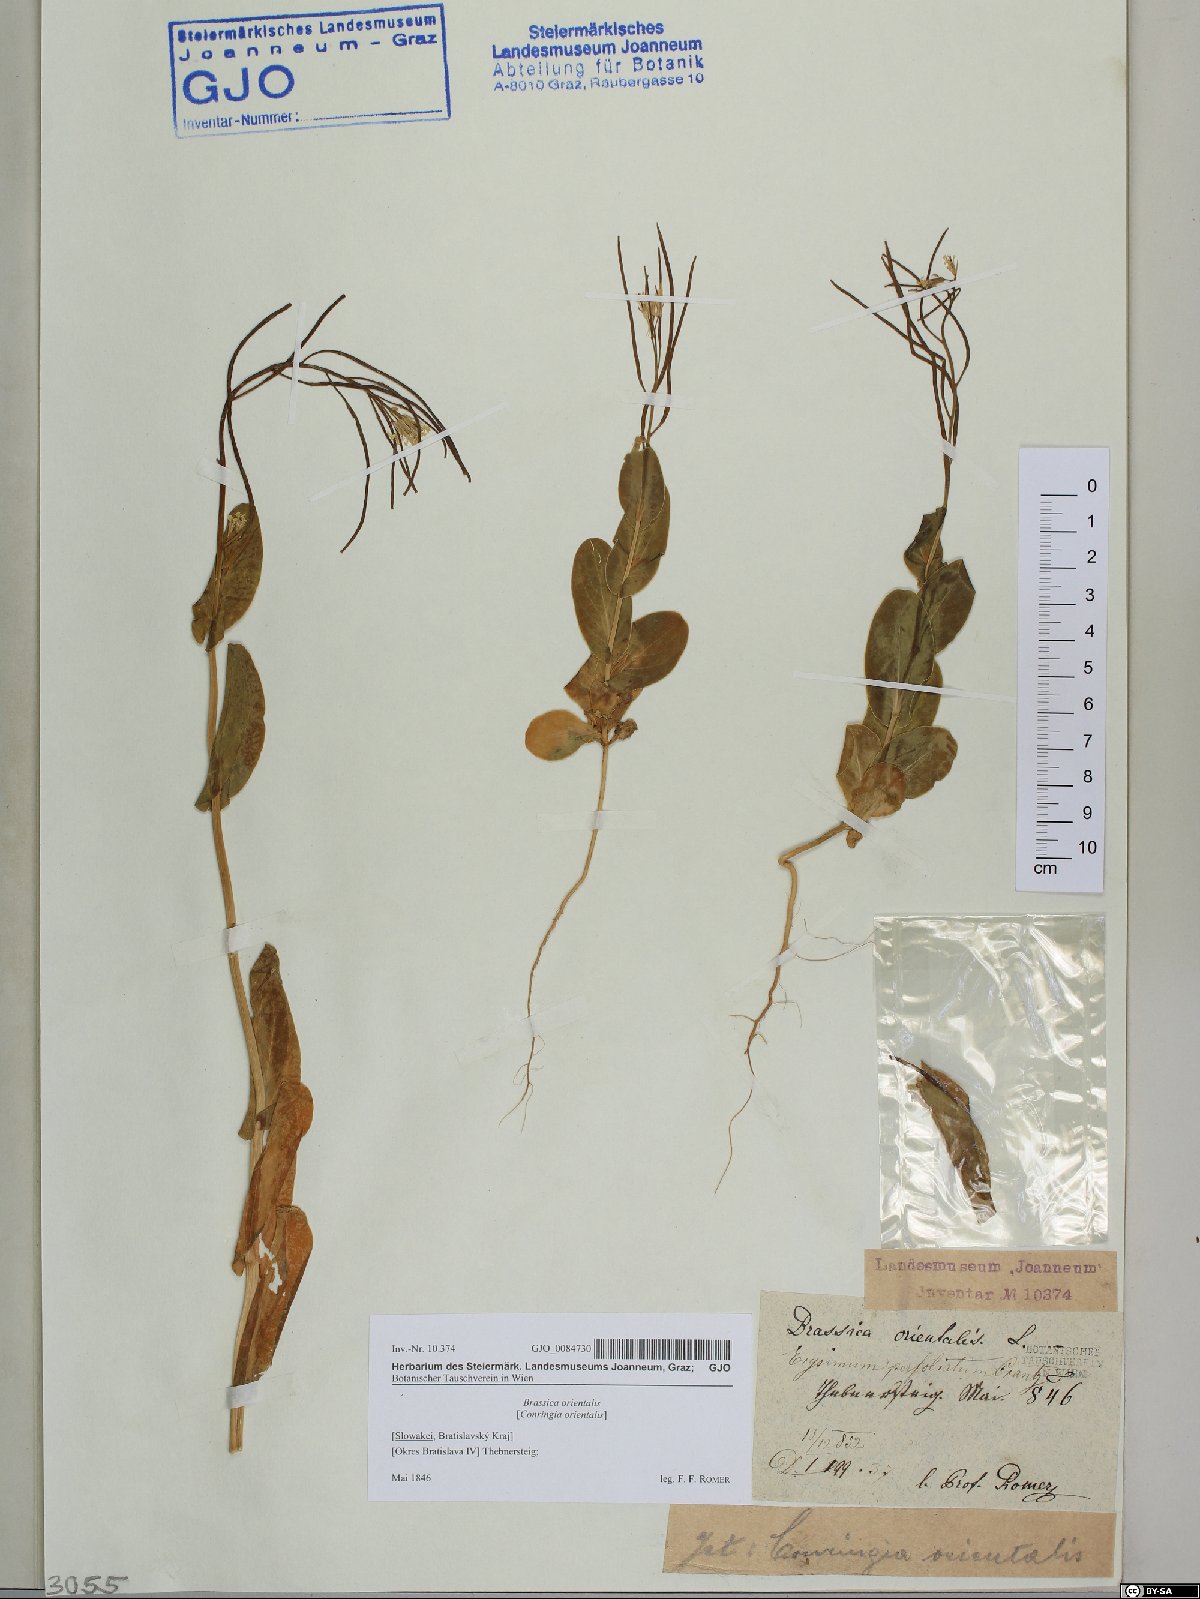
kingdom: Plantae
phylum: Tracheophyta
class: Magnoliopsida
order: Brassicales
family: Brassicaceae
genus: Conringia
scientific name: Conringia orientalis
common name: Hare's ear mustard
